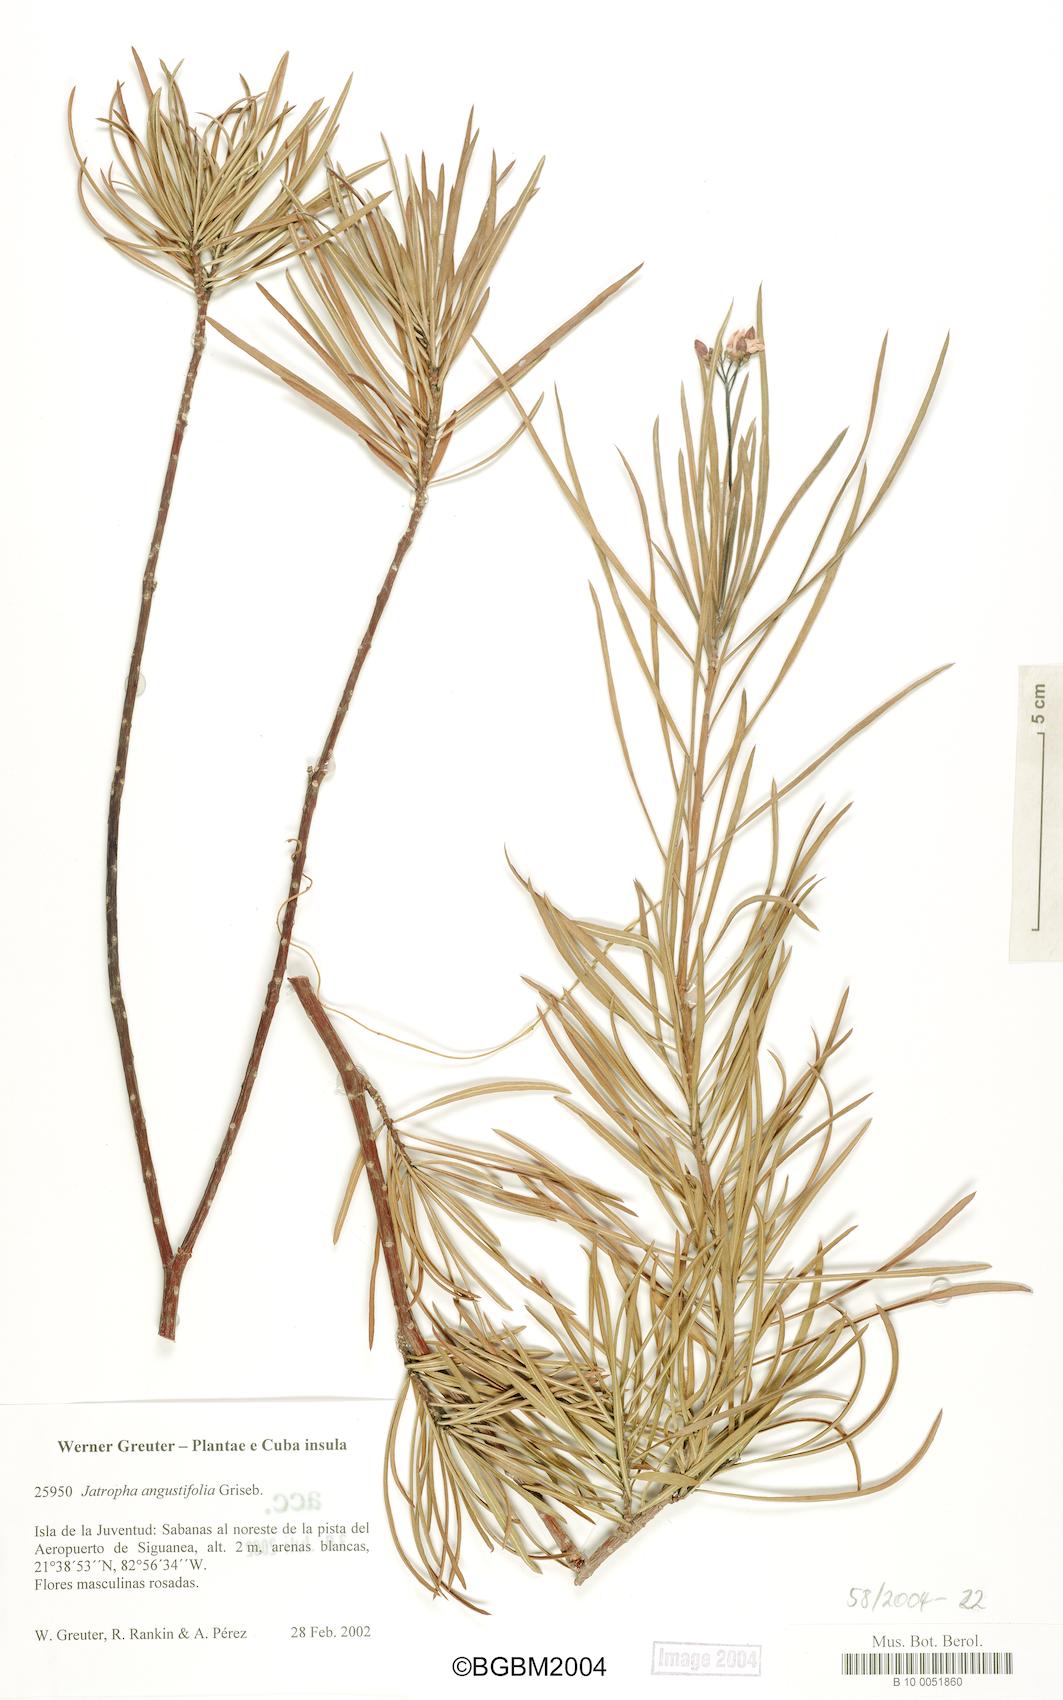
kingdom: Plantae
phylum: Tracheophyta
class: Magnoliopsida
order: Malpighiales
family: Euphorbiaceae
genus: Jatropha
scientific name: Jatropha angustifolia
